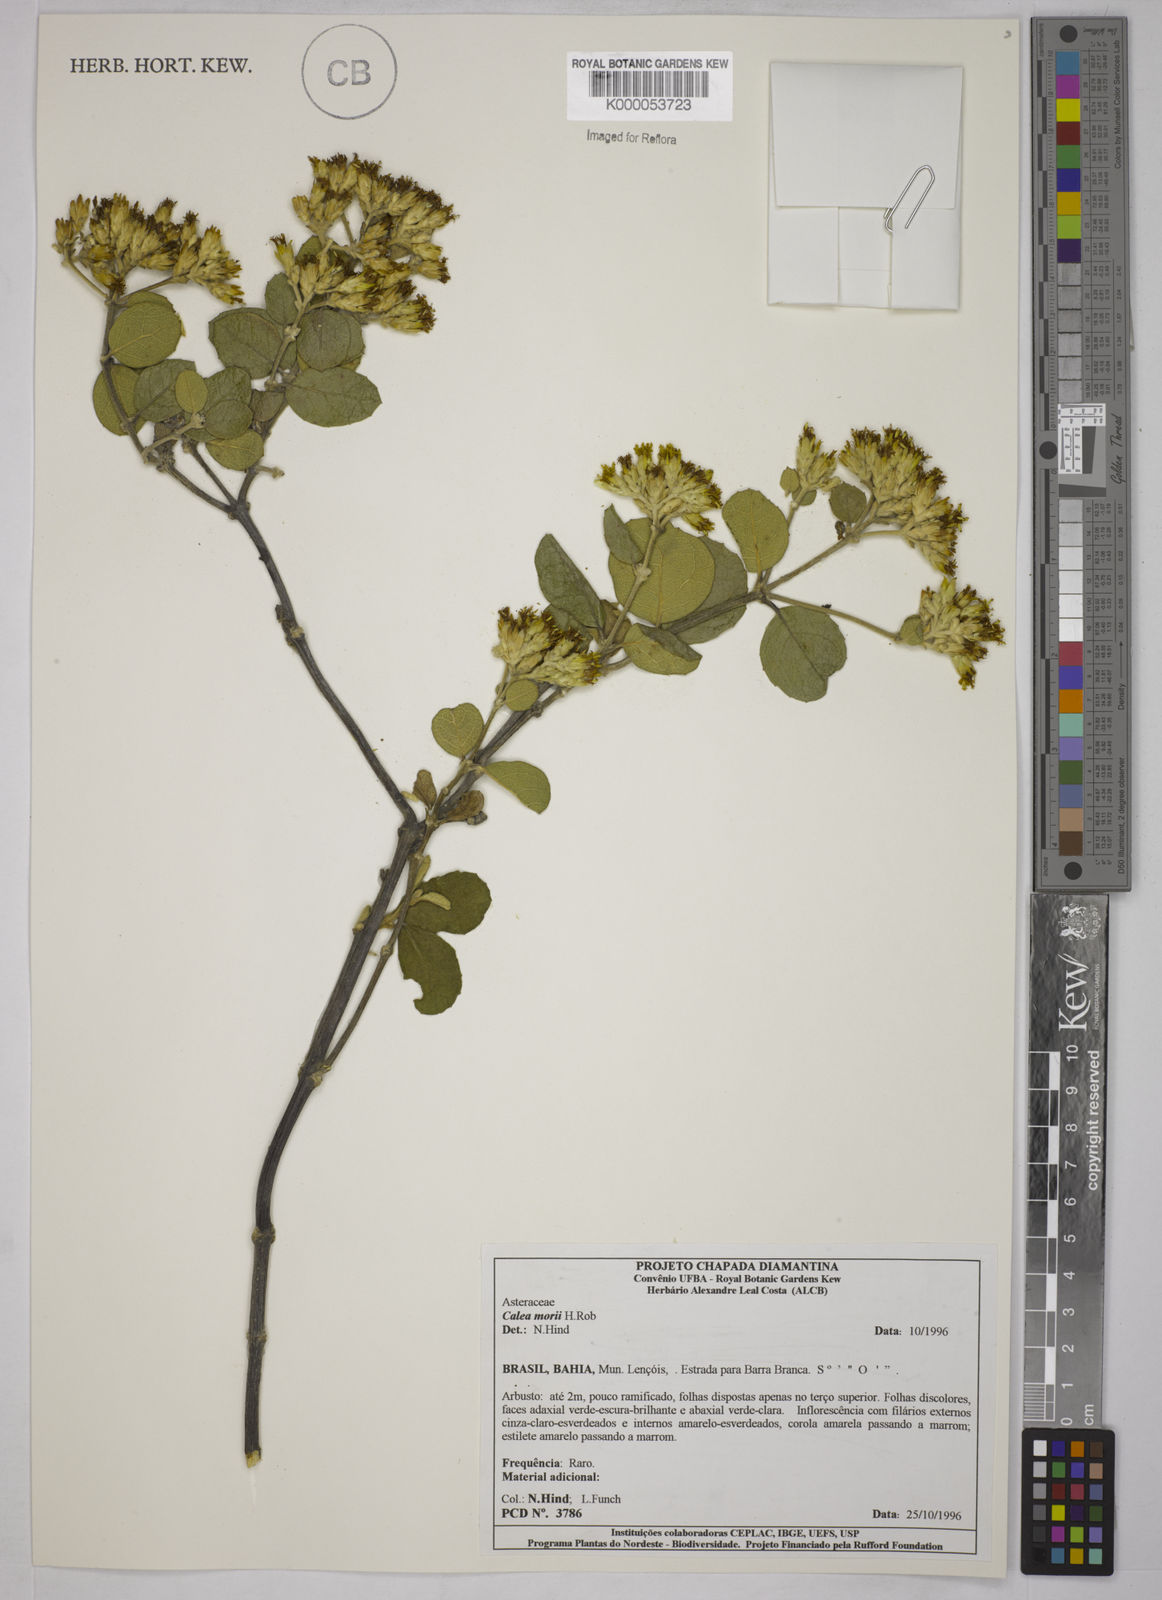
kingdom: Plantae
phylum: Tracheophyta
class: Magnoliopsida
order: Asterales
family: Asteraceae
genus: Calea
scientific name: Calea morii
